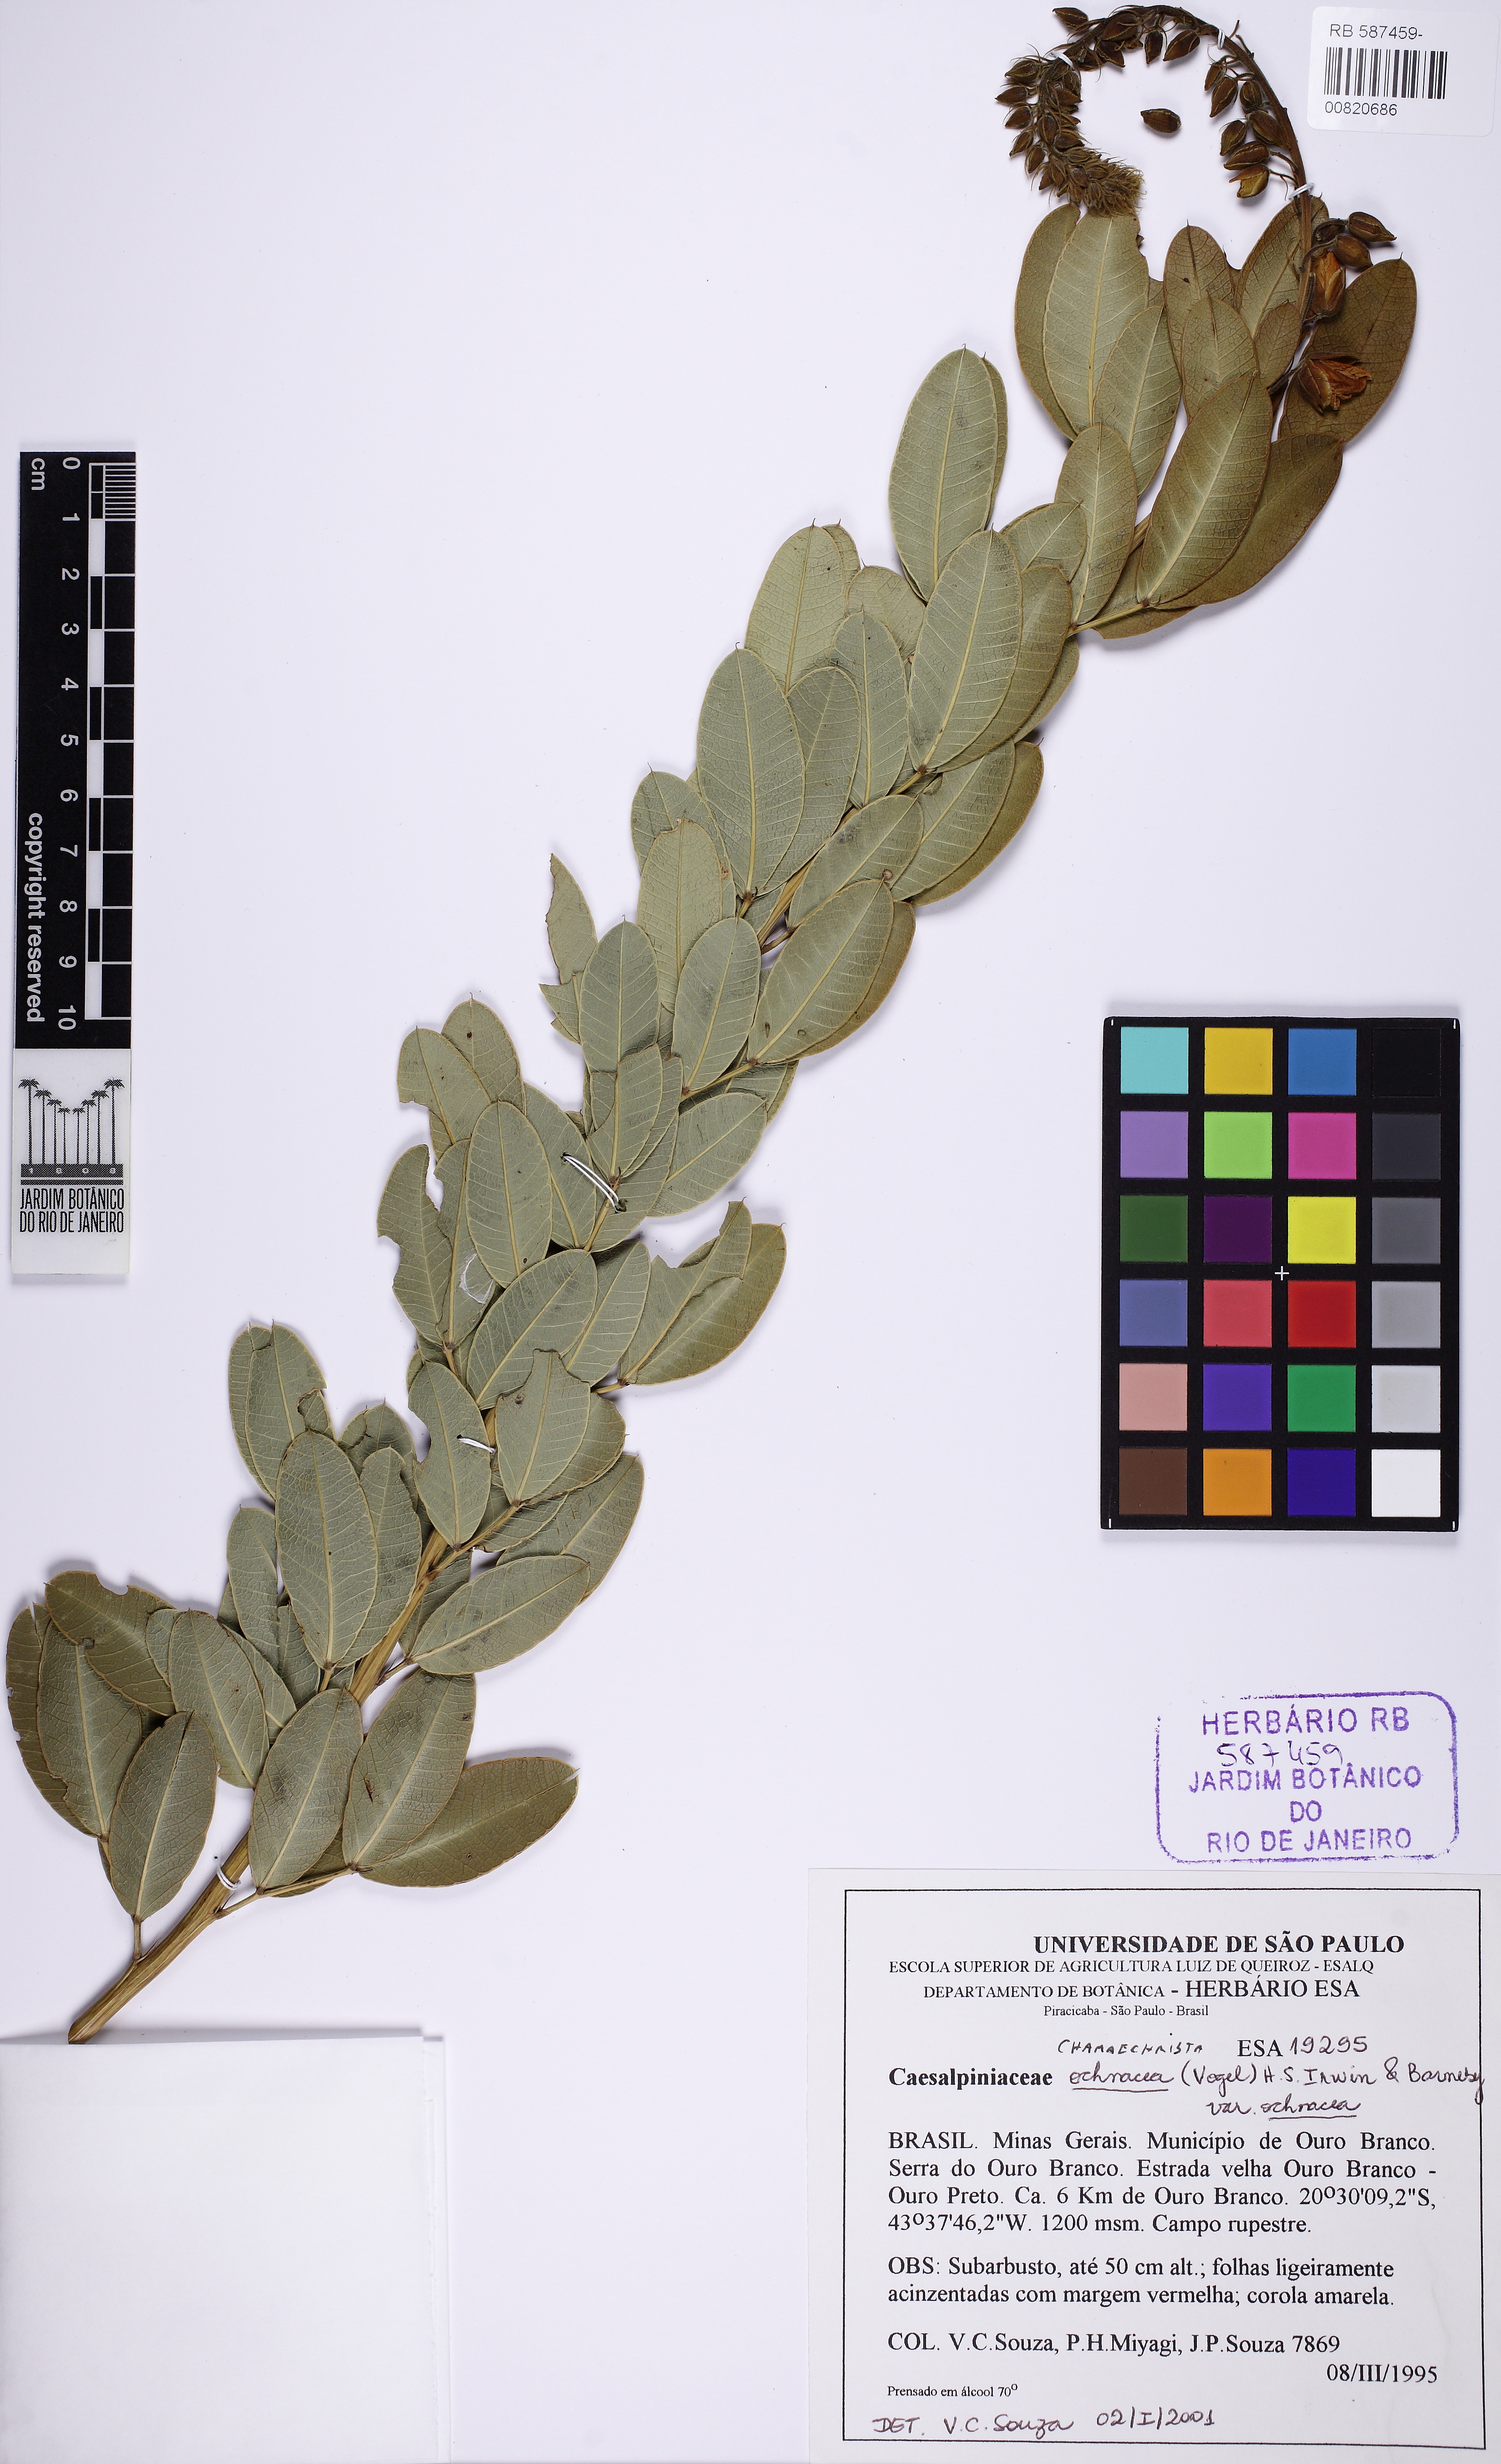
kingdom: Plantae
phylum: Tracheophyta
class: Magnoliopsida
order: Fabales
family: Fabaceae
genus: Chamaecrista
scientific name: Chamaecrista ochnacea
